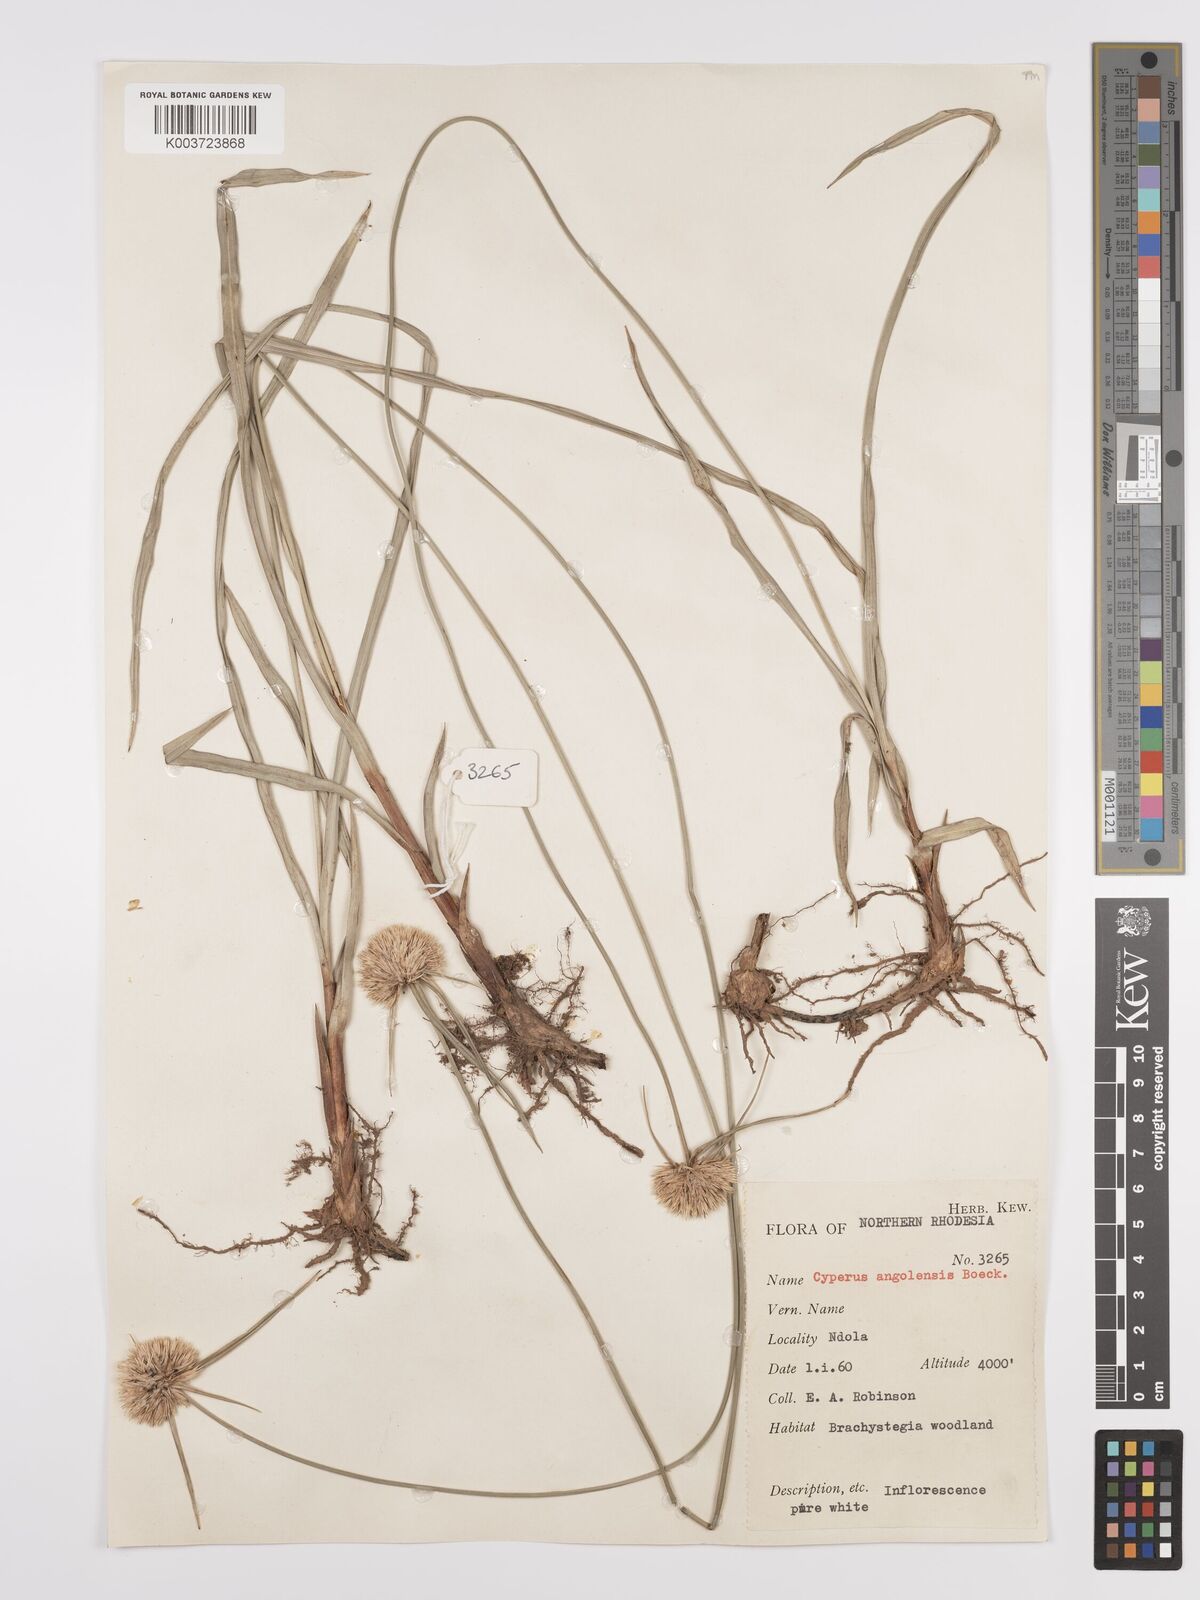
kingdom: Plantae
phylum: Tracheophyta
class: Liliopsida
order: Poales
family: Cyperaceae
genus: Cyperus
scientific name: Cyperus angolensis
